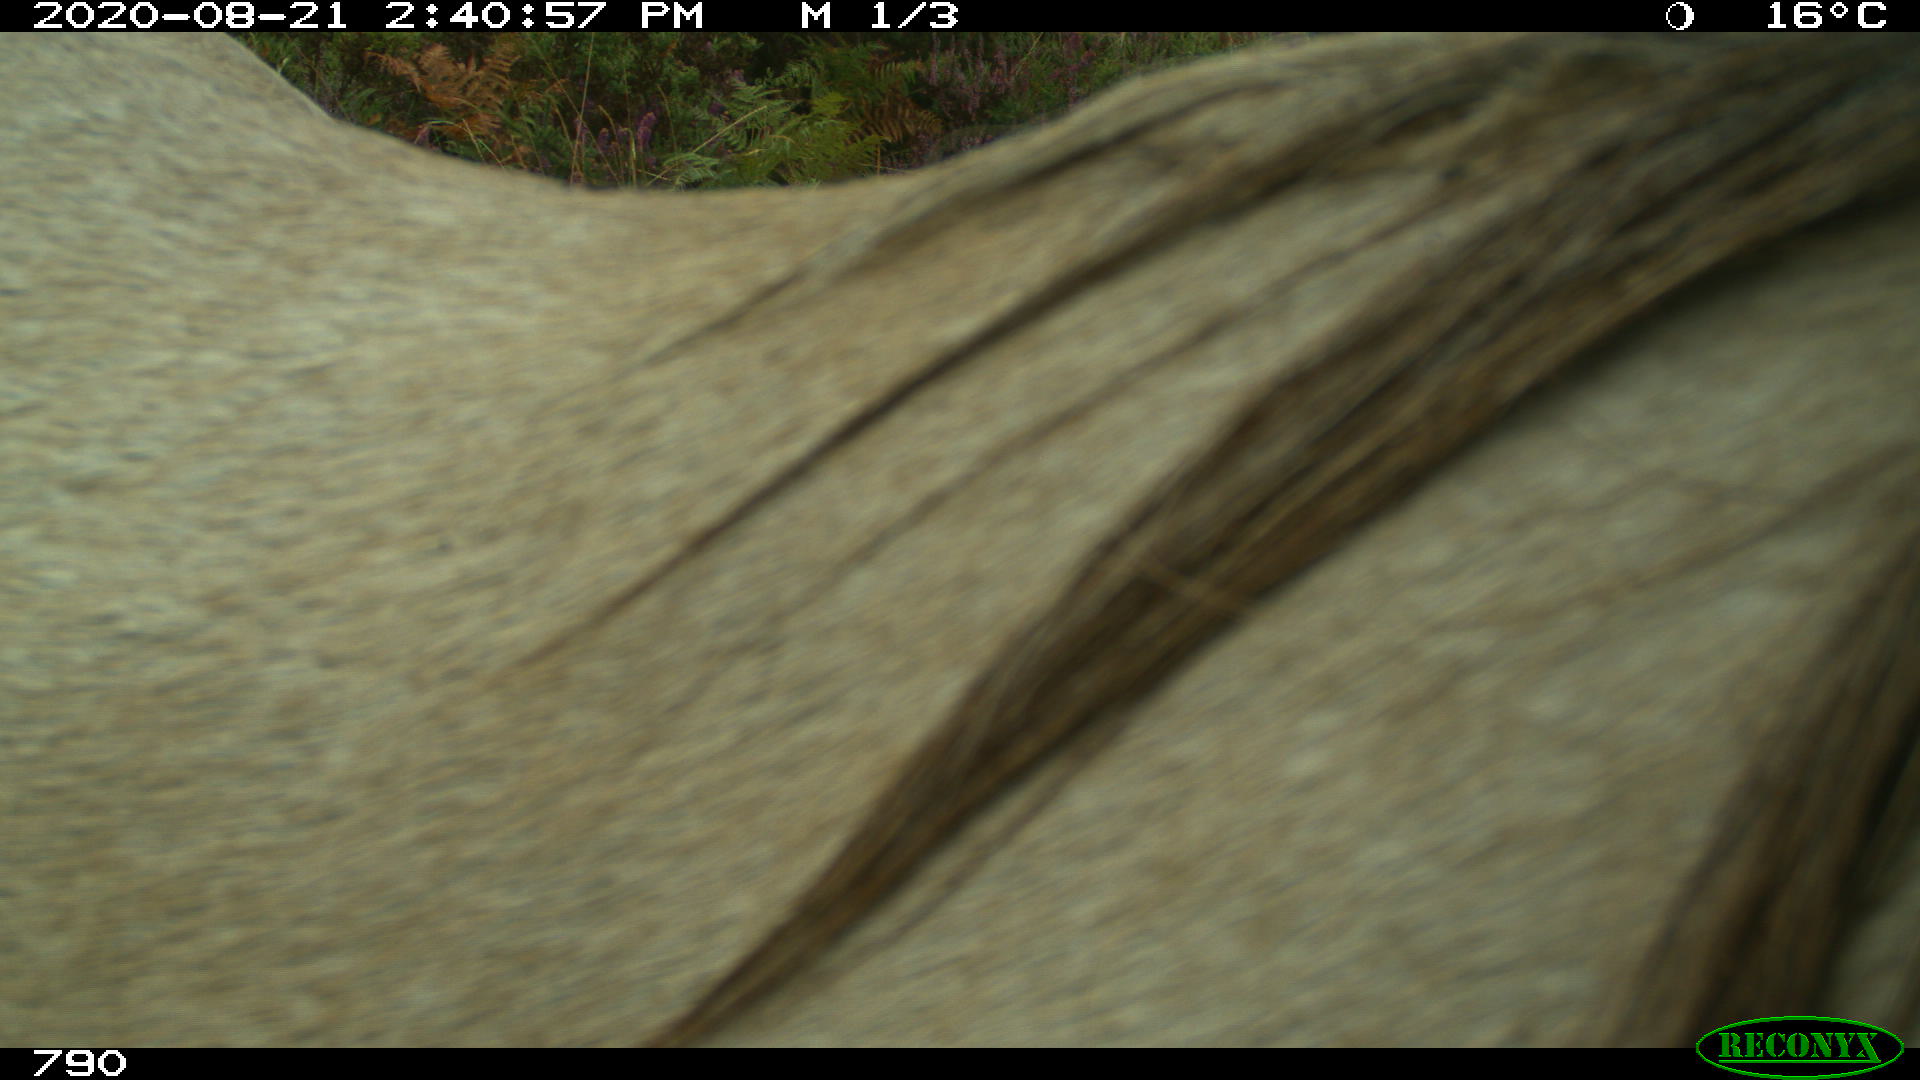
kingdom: Animalia
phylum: Chordata
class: Mammalia
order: Perissodactyla
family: Equidae
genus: Equus
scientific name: Equus caballus
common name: Horse
